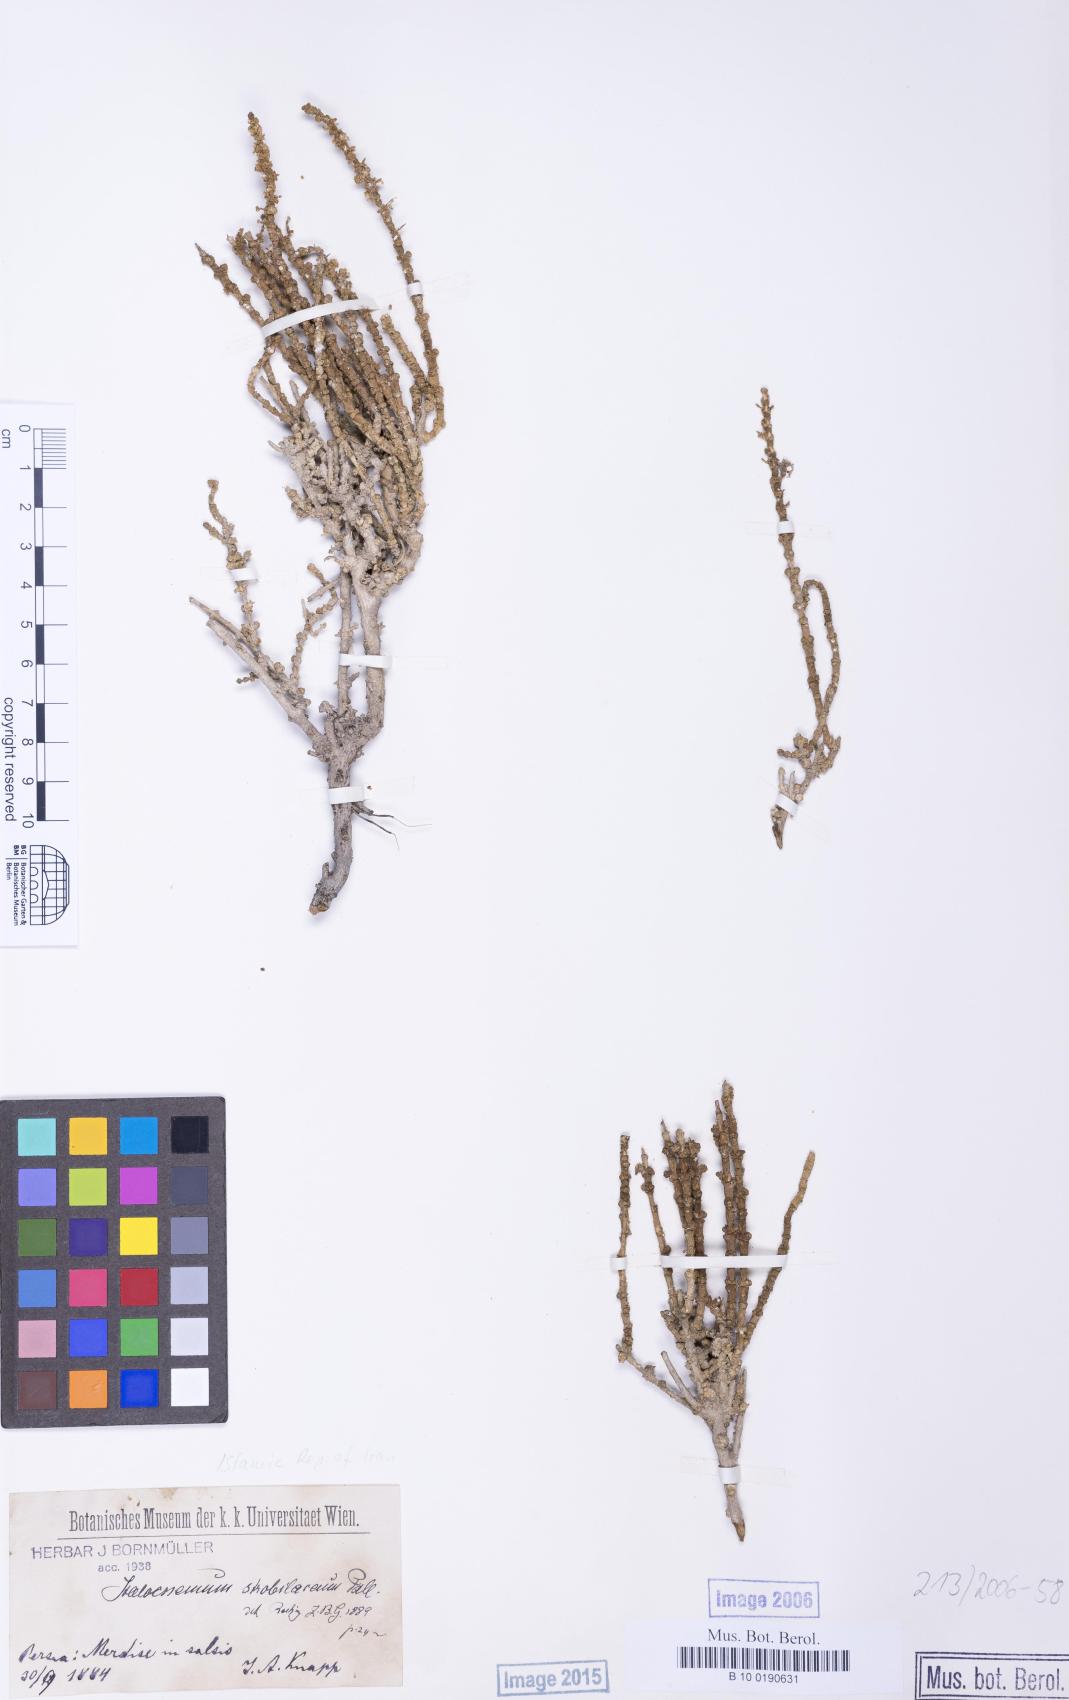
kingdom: Plantae
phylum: Tracheophyta
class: Magnoliopsida
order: Caryophyllales
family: Amaranthaceae
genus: Halocnemum
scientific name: Halocnemum strobilaceum
